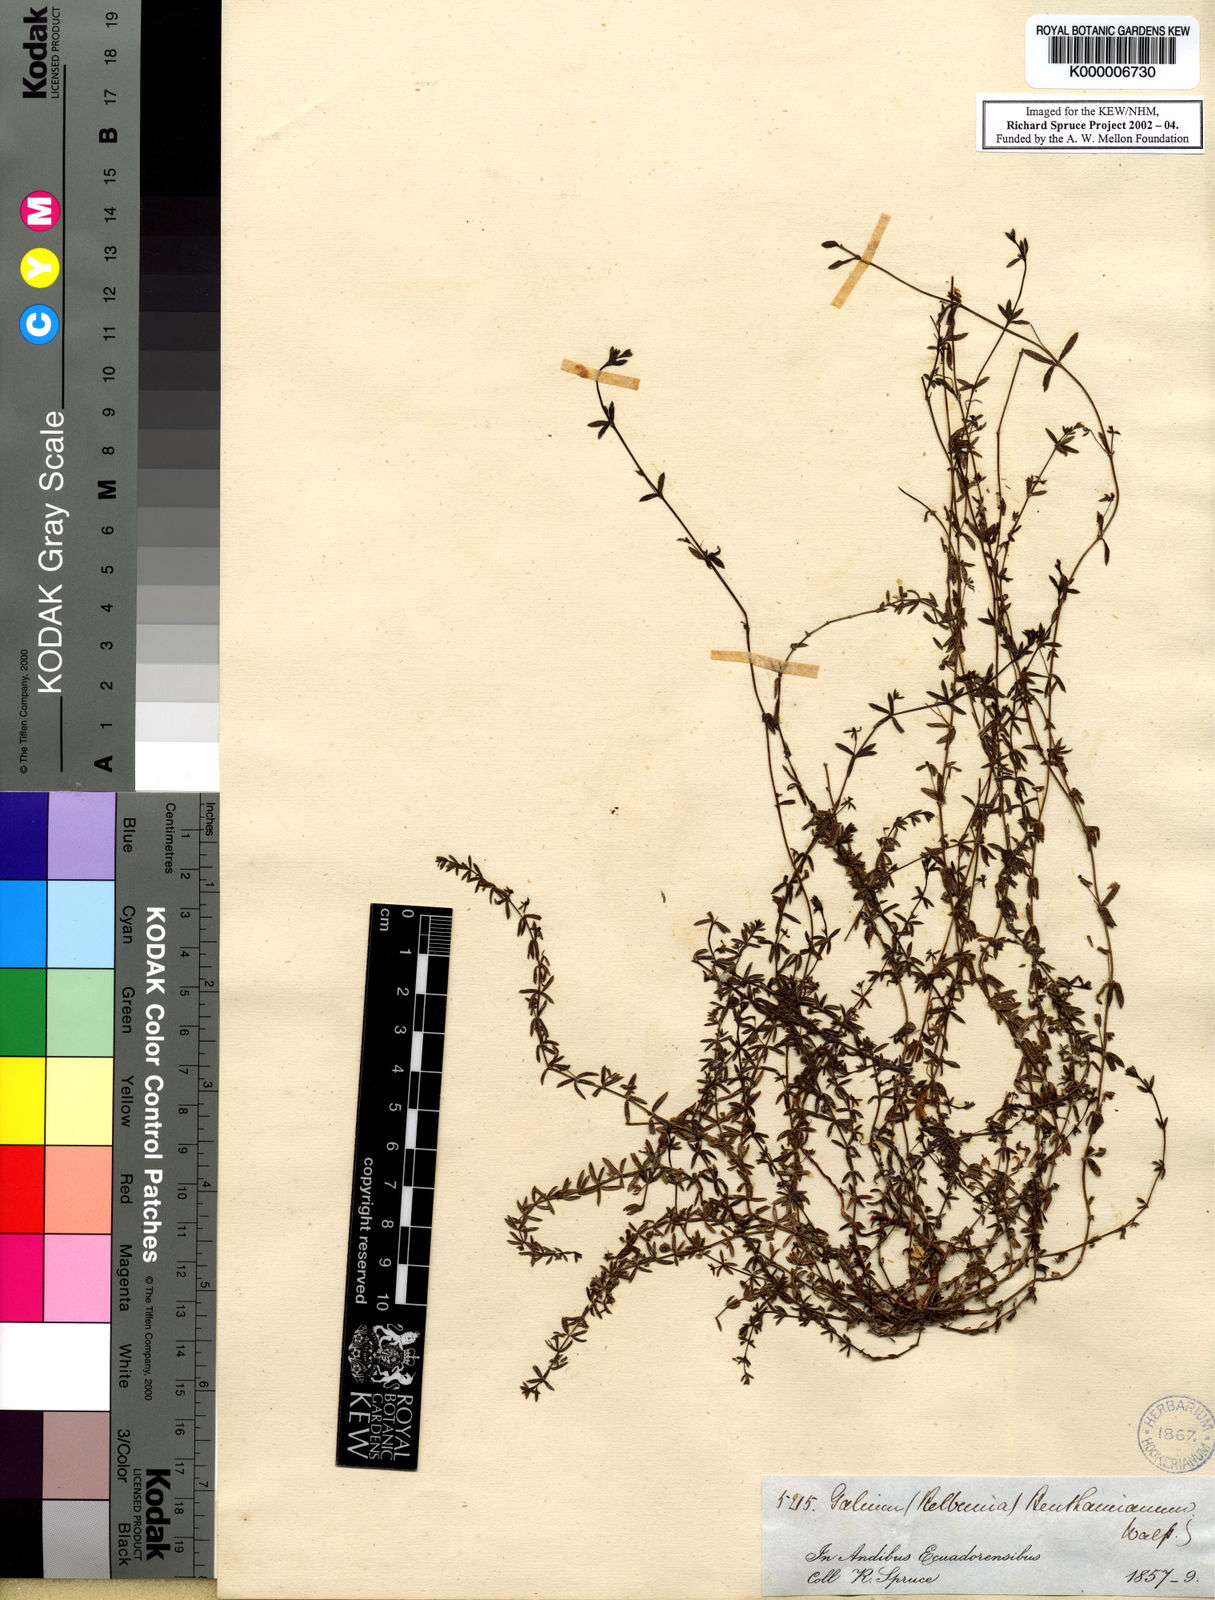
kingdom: Plantae
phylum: Tracheophyta
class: Magnoliopsida
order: Gentianales
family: Rubiaceae
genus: Galium
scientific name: Galium corymbosum
